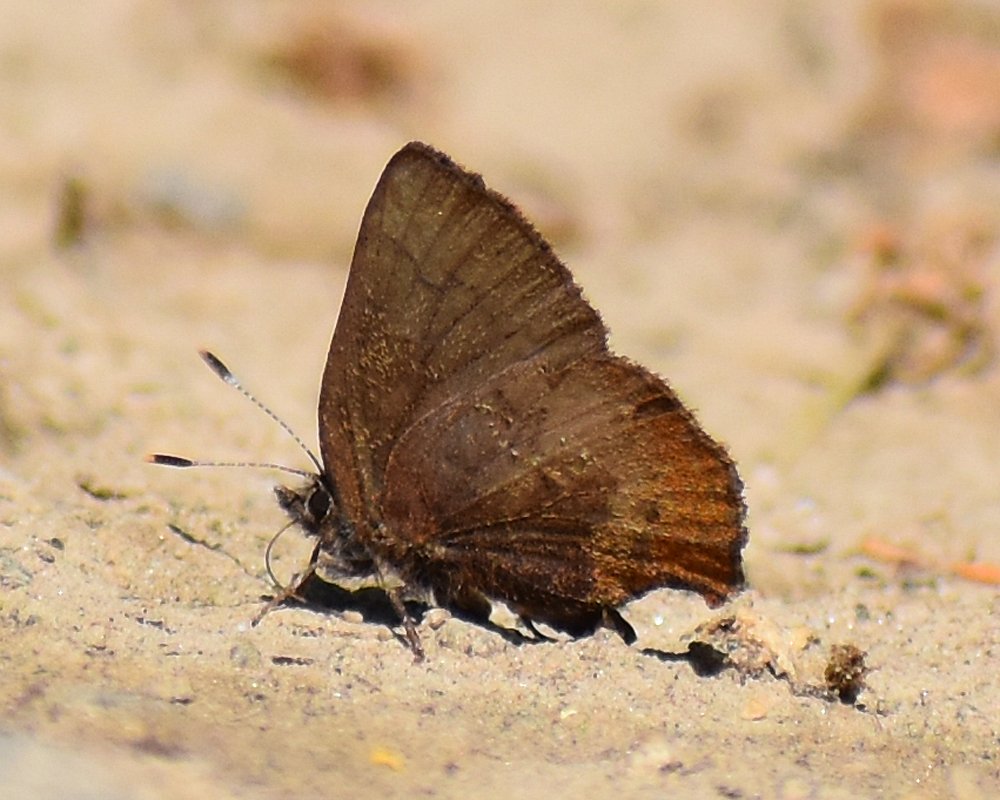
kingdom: Animalia
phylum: Arthropoda
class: Insecta
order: Lepidoptera
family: Lycaenidae
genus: Incisalia
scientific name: Incisalia irioides
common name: Brown Elfin
